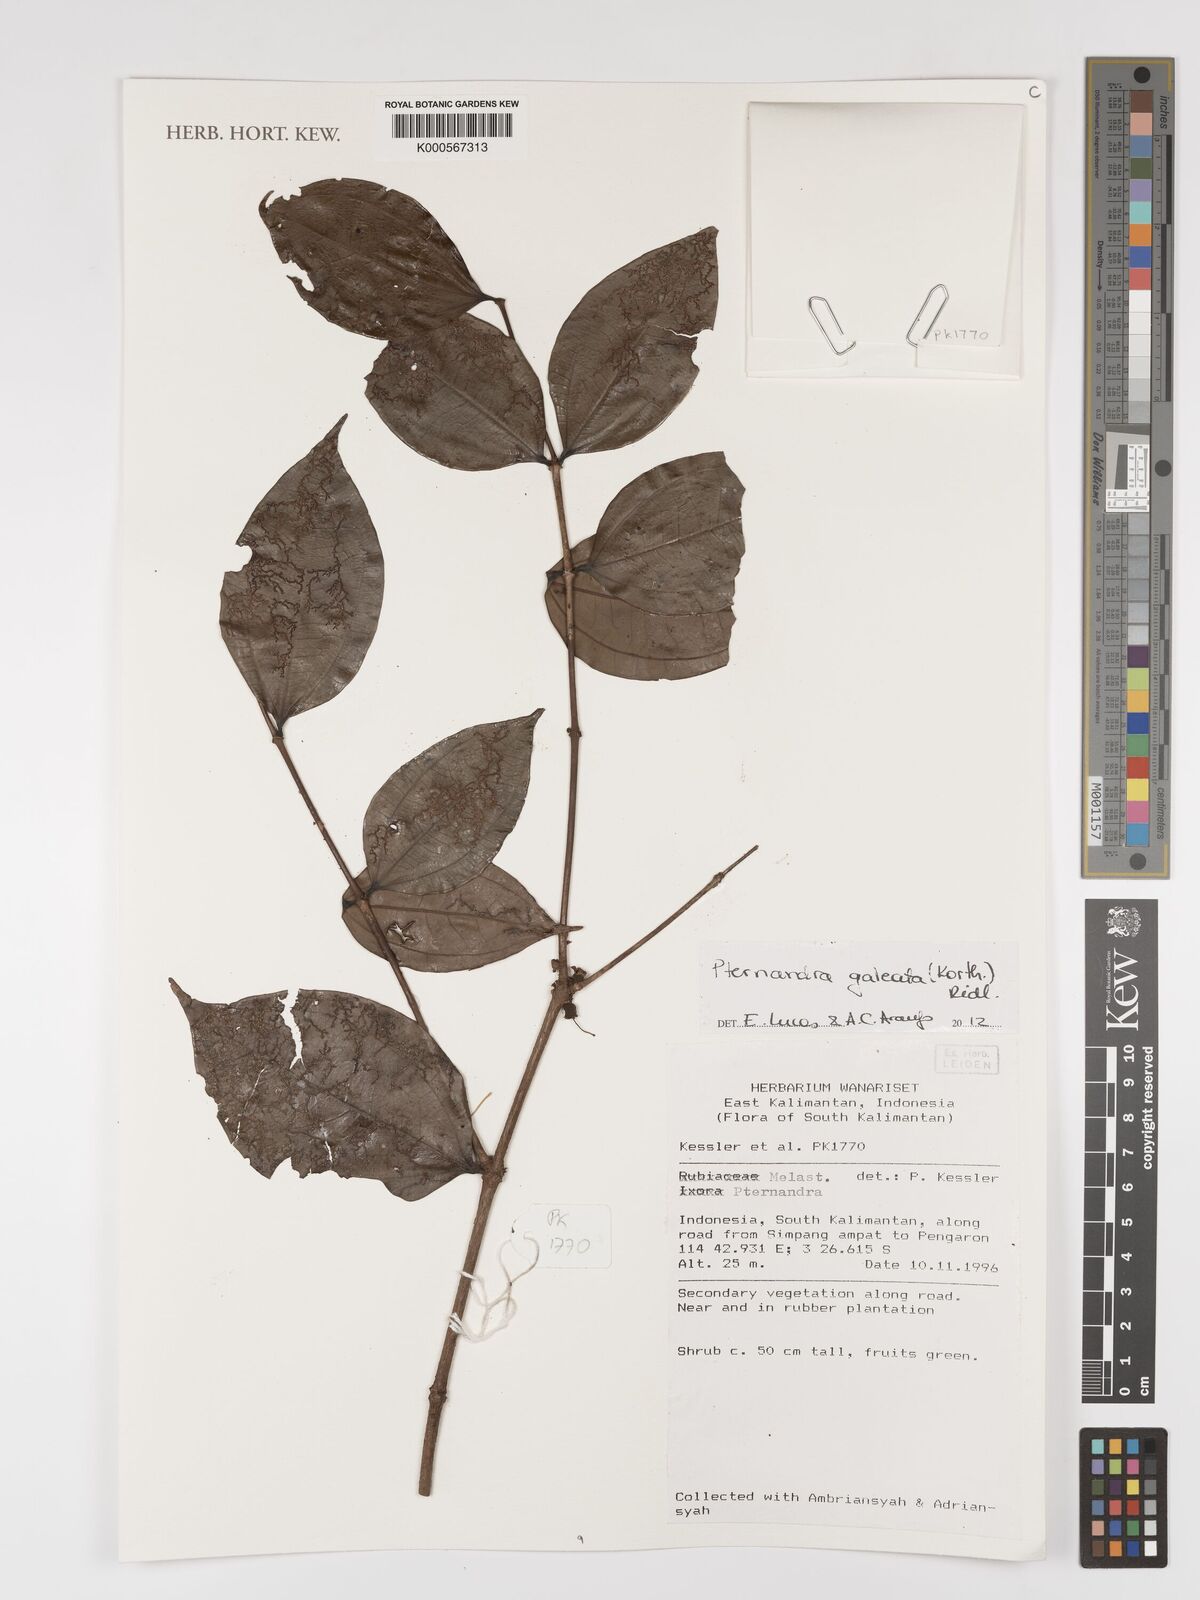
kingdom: Plantae
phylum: Tracheophyta
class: Magnoliopsida
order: Myrtales
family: Melastomataceae
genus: Pternandra
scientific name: Pternandra galeata
